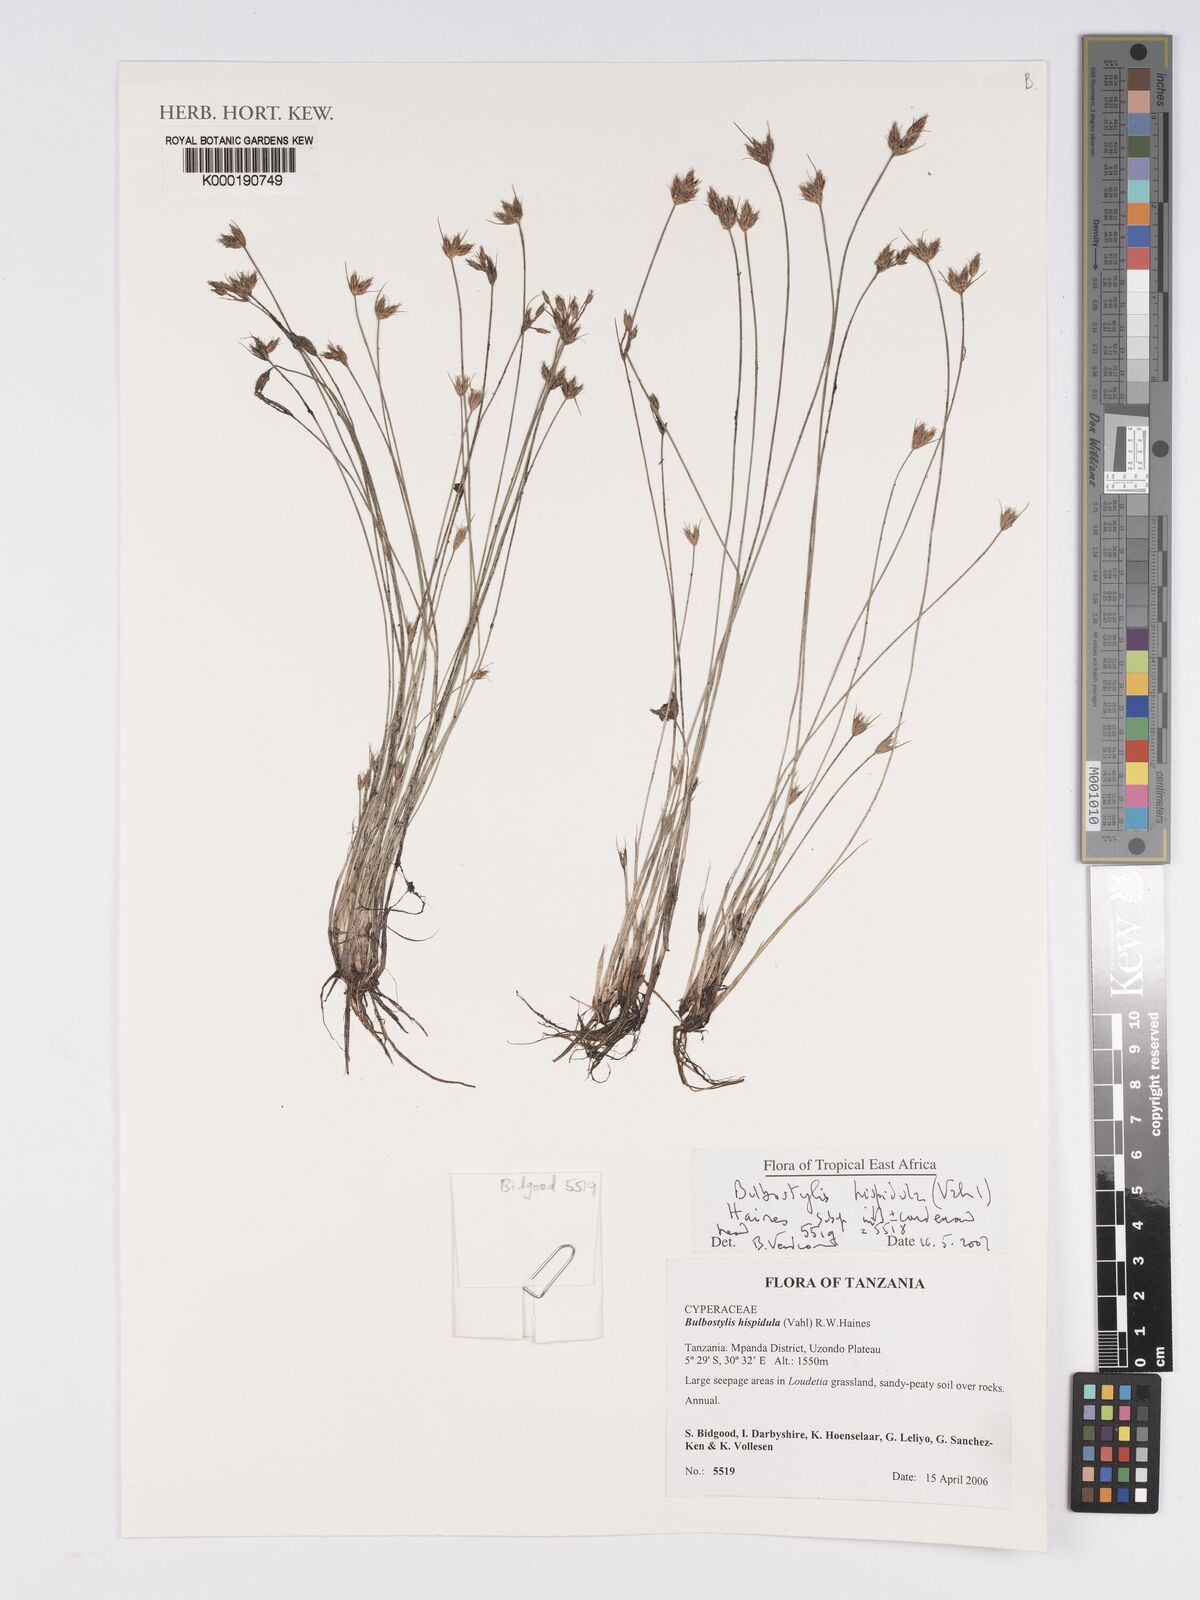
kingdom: Plantae
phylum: Tracheophyta
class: Liliopsida
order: Poales
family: Cyperaceae
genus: Bulbostylis
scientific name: Bulbostylis hispidula
